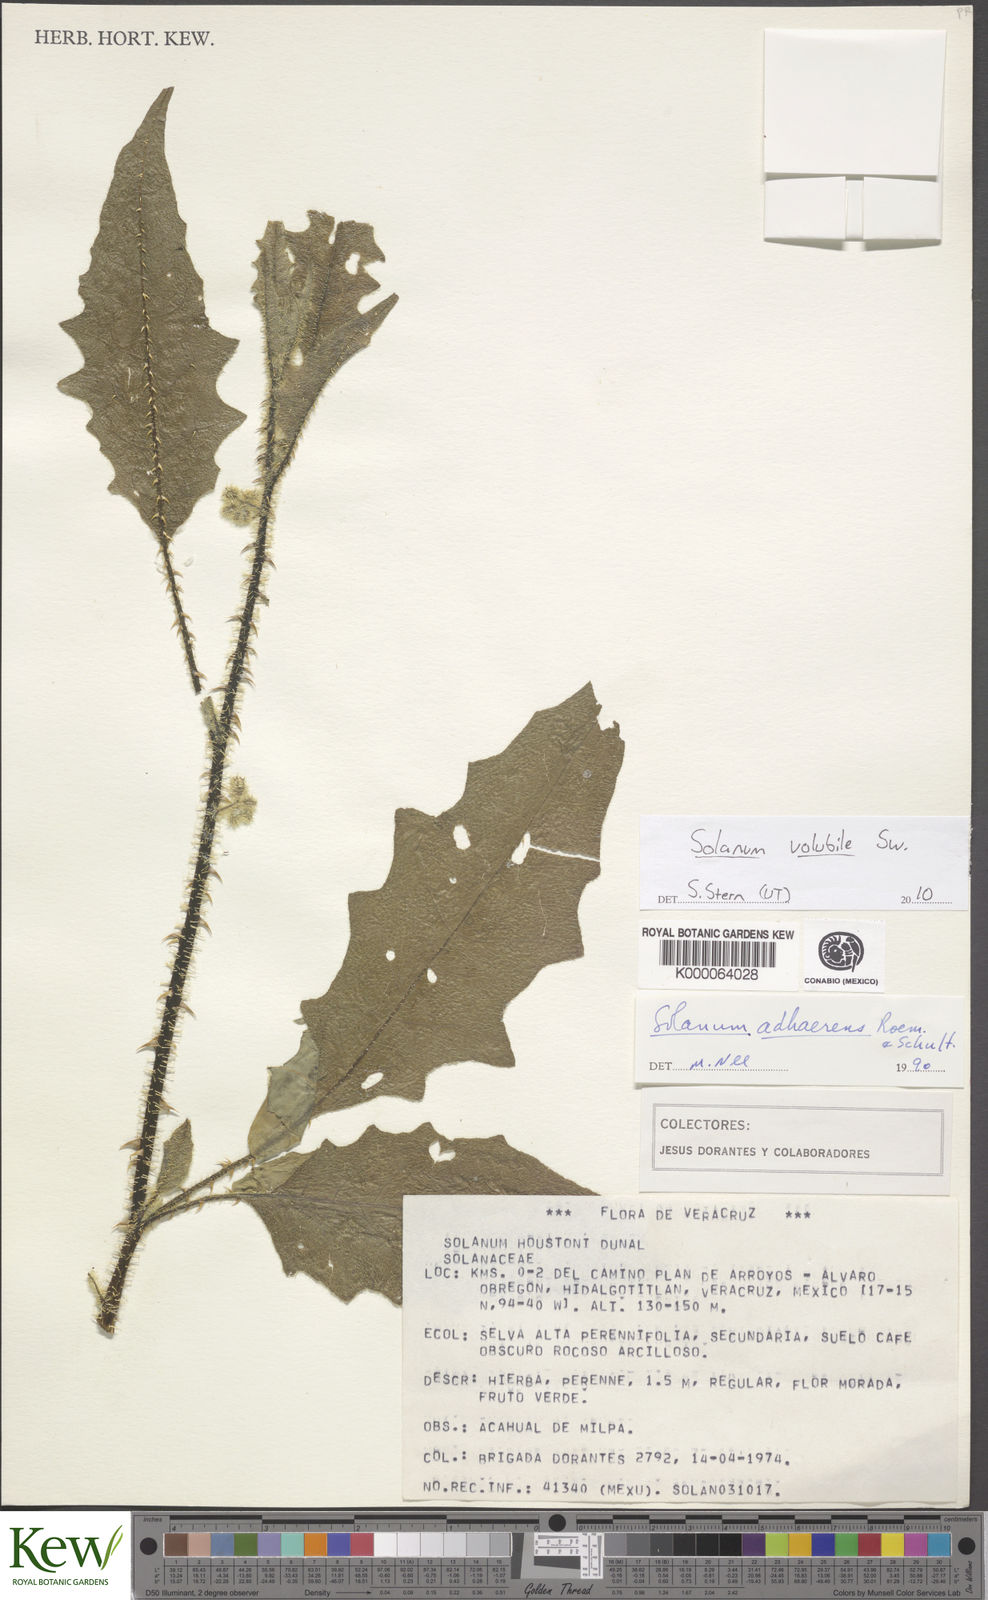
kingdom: Plantae
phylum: Tracheophyta
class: Magnoliopsida
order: Solanales
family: Solanaceae
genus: Solanum
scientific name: Solanum volubile
